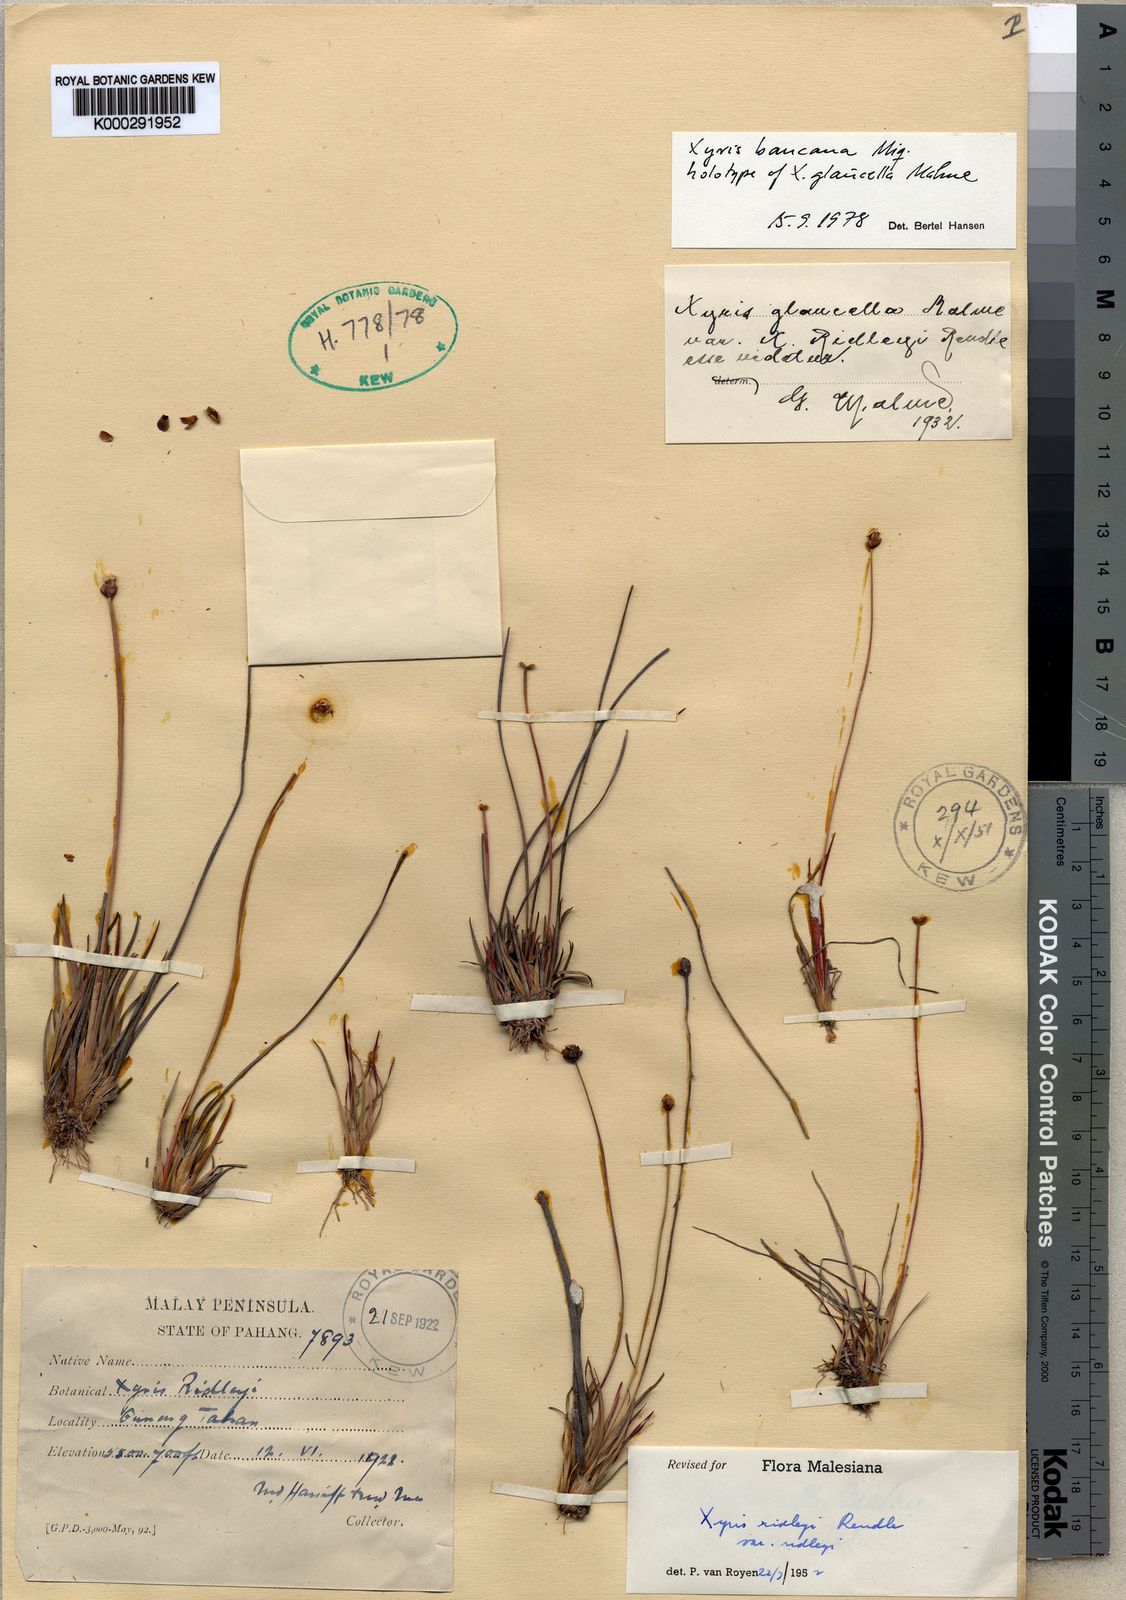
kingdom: Plantae
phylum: Tracheophyta
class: Liliopsida
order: Poales
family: Xyridaceae
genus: Xyris
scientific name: Xyris bancana
